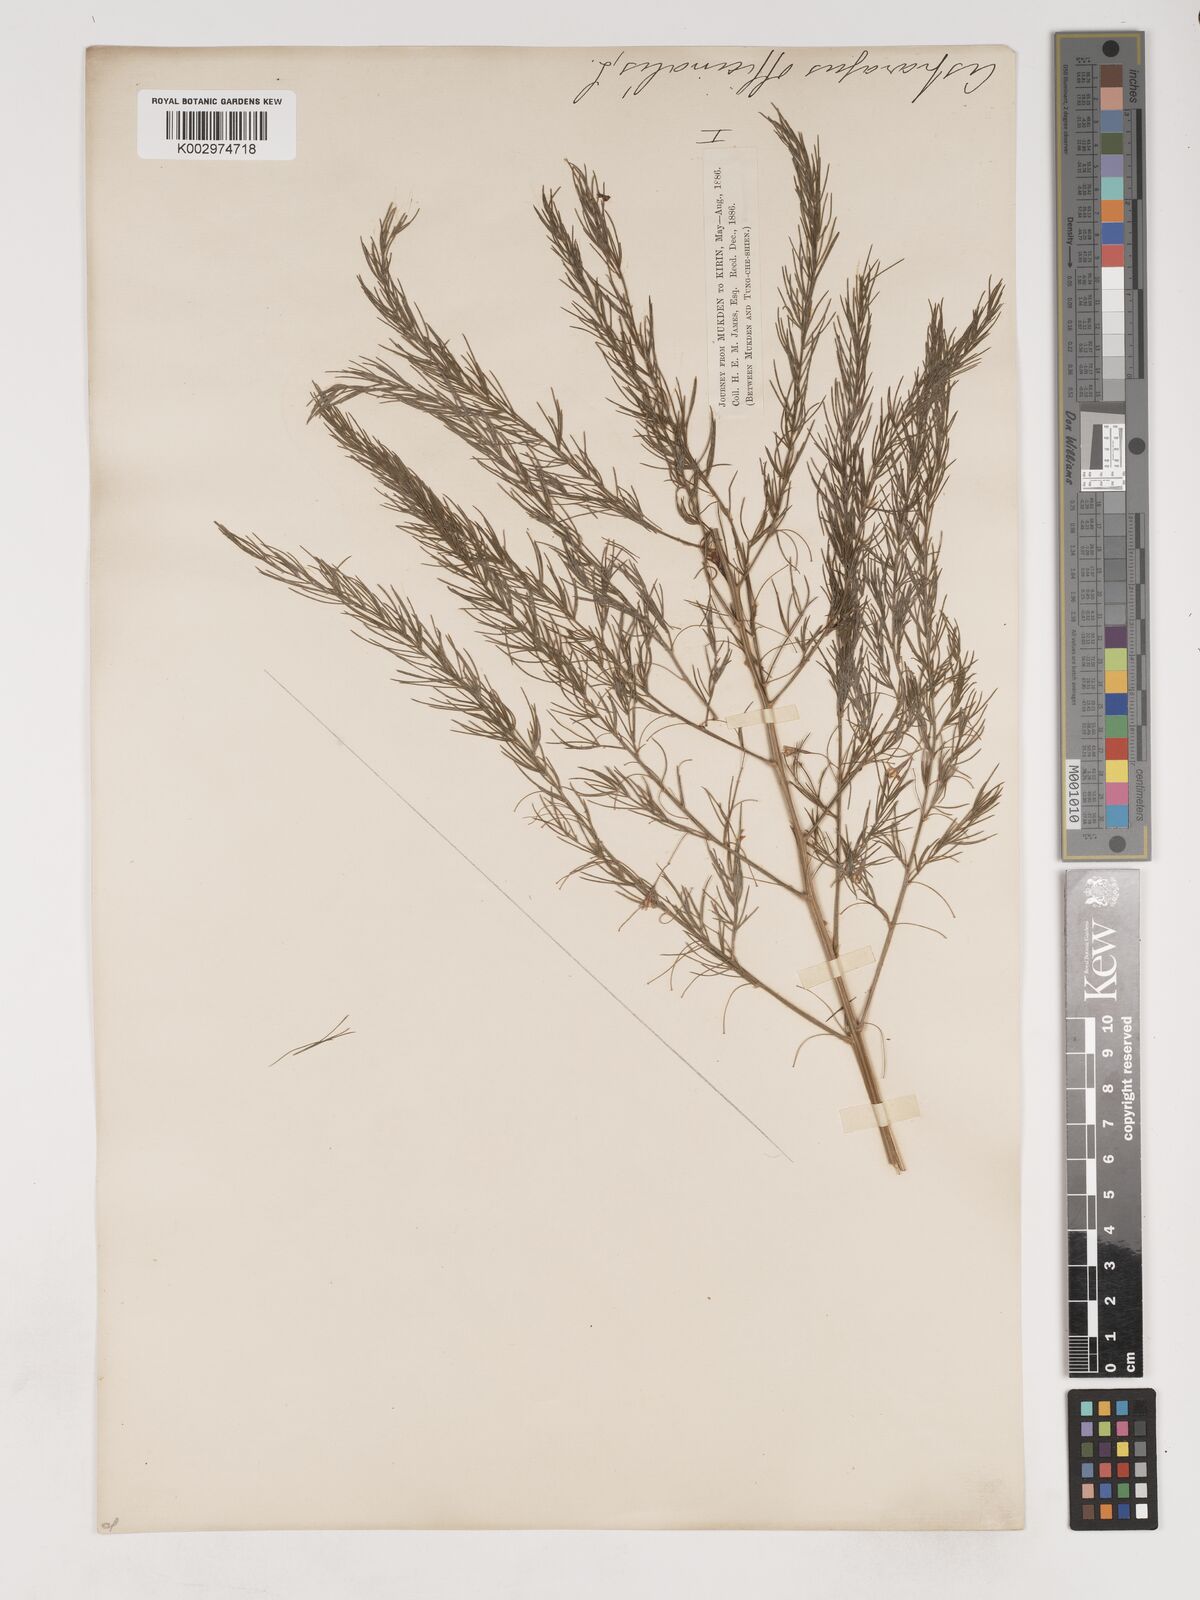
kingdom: Plantae
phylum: Tracheophyta
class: Liliopsida
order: Asparagales
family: Asparagaceae
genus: Asparagus
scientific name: Asparagus oligoclonos
